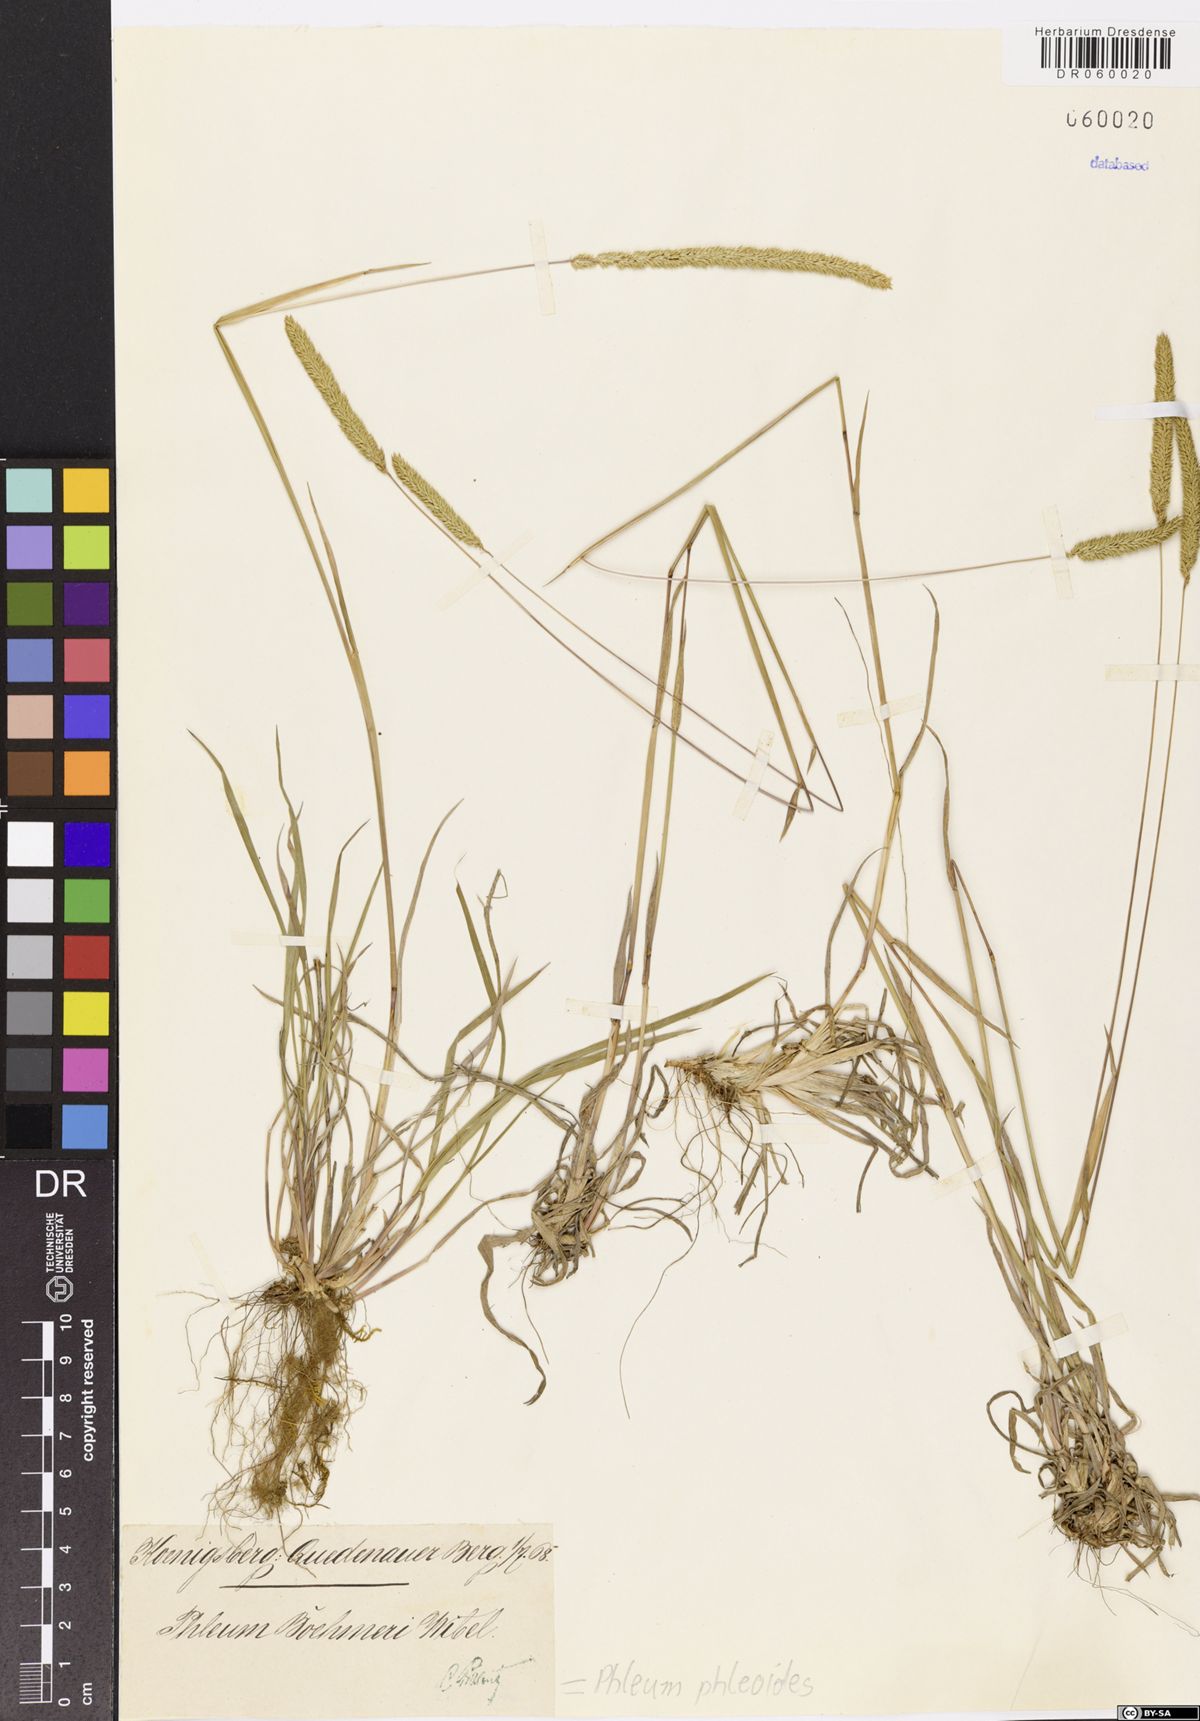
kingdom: Plantae
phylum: Tracheophyta
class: Liliopsida
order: Poales
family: Poaceae
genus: Phleum
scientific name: Phleum phleoides
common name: Purple-stem cat's-tail
